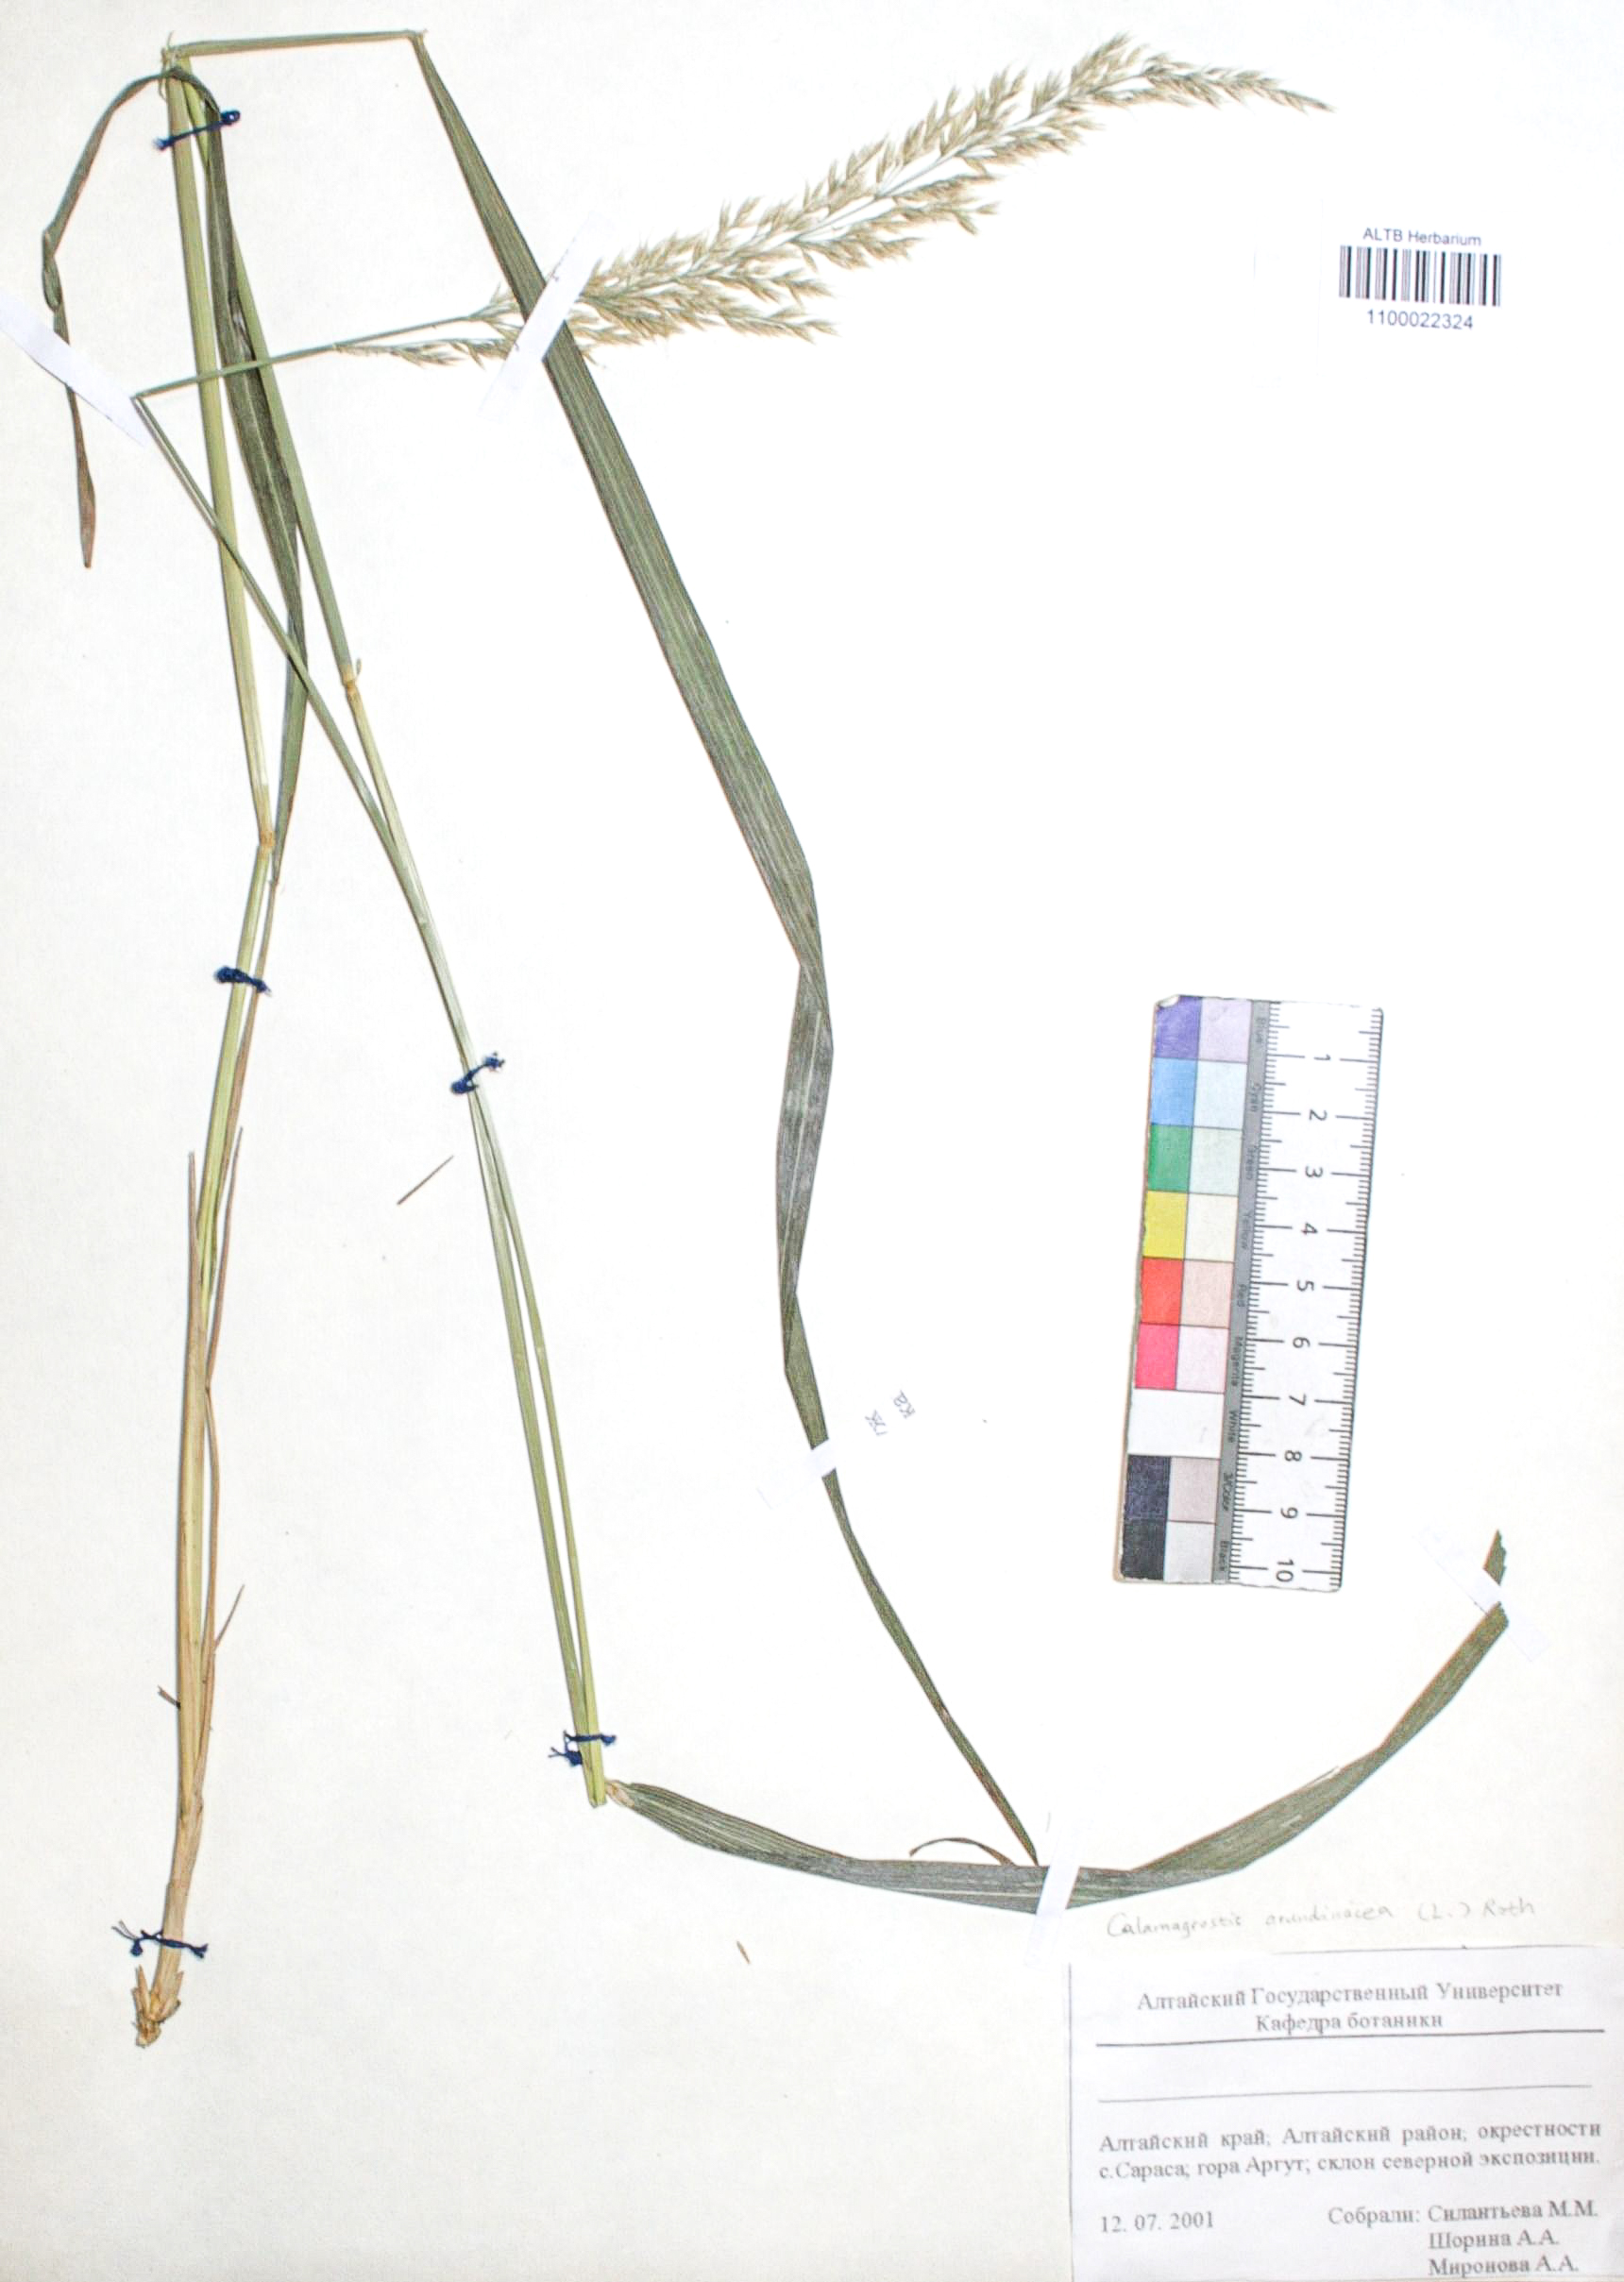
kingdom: Plantae
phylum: Tracheophyta
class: Liliopsida
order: Poales
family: Poaceae
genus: Calamagrostis
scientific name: Calamagrostis arundinacea
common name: Metskastik
